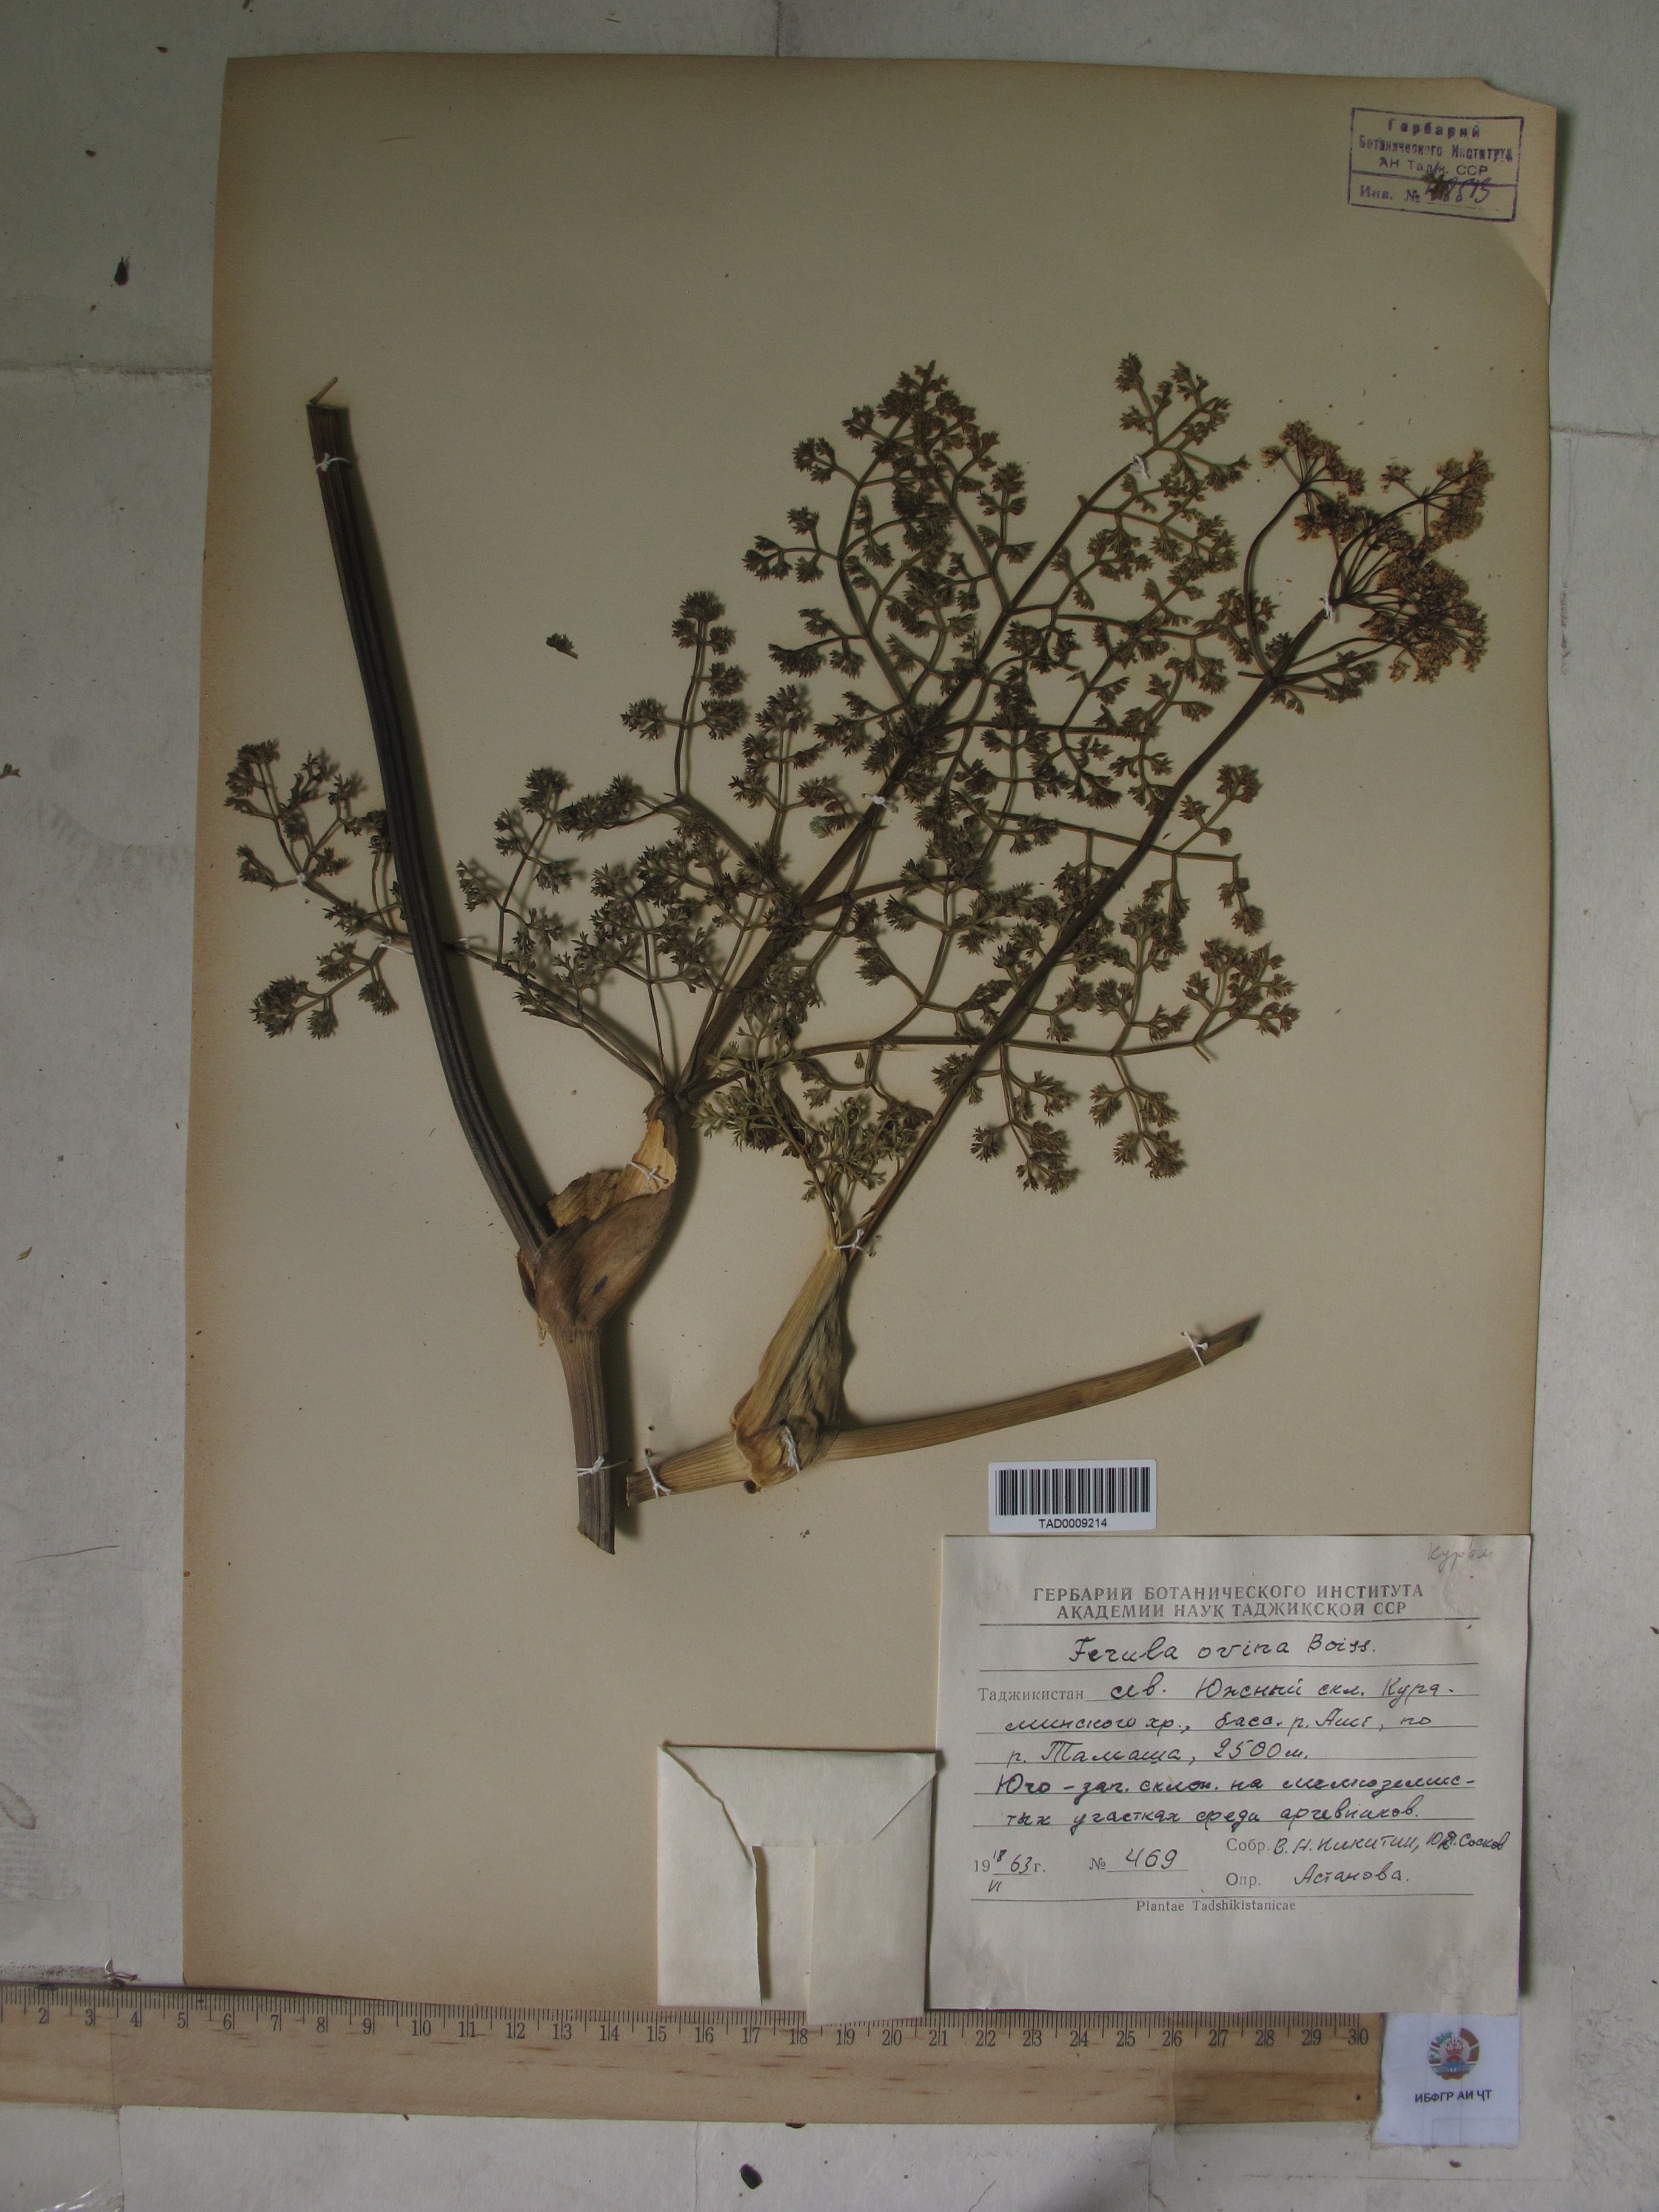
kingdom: Plantae
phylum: Tracheophyta
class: Magnoliopsida
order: Apiales
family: Apiaceae
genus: Ferula
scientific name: Ferula ovina
